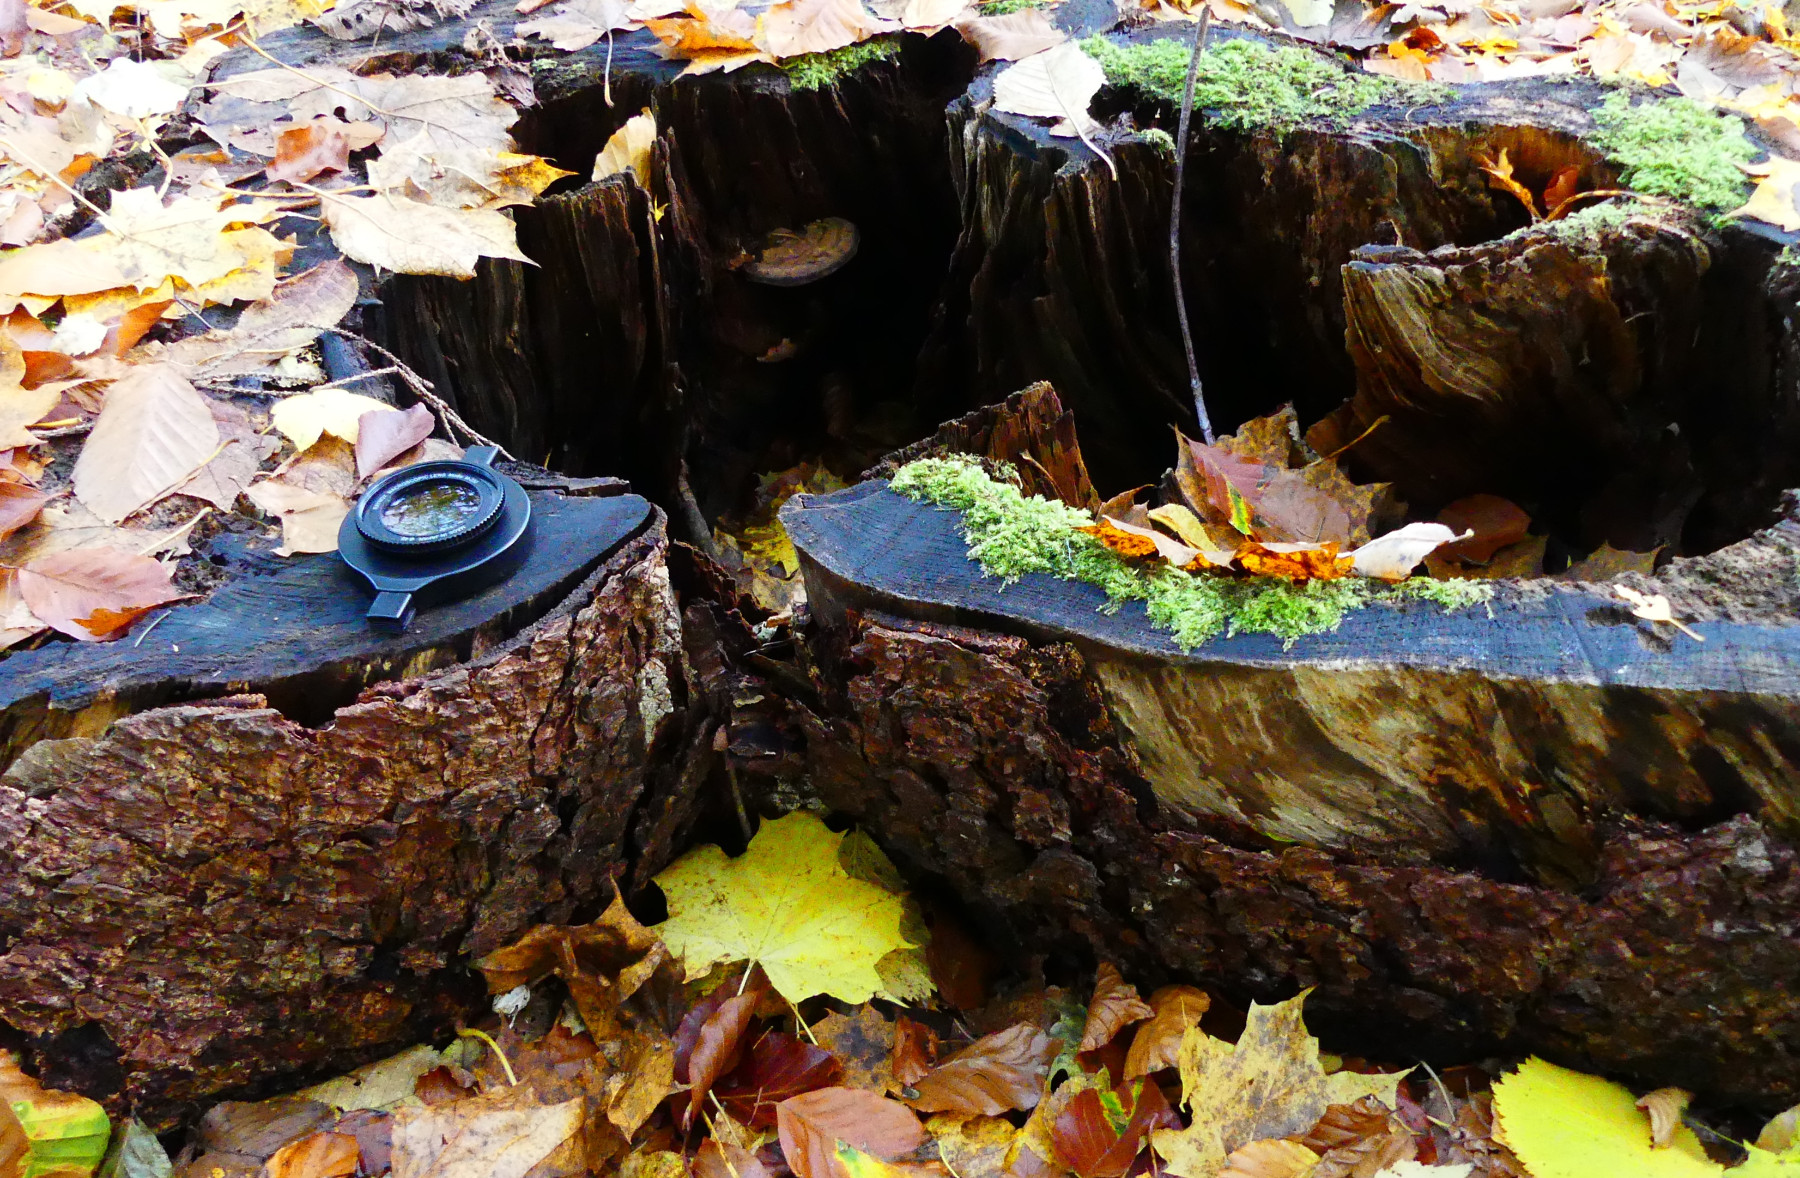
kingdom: Fungi
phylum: Basidiomycota
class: Agaricomycetes
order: Polyporales
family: Polyporaceae
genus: Ganoderma
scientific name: Ganoderma applanatum
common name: flad lakporesvamp
